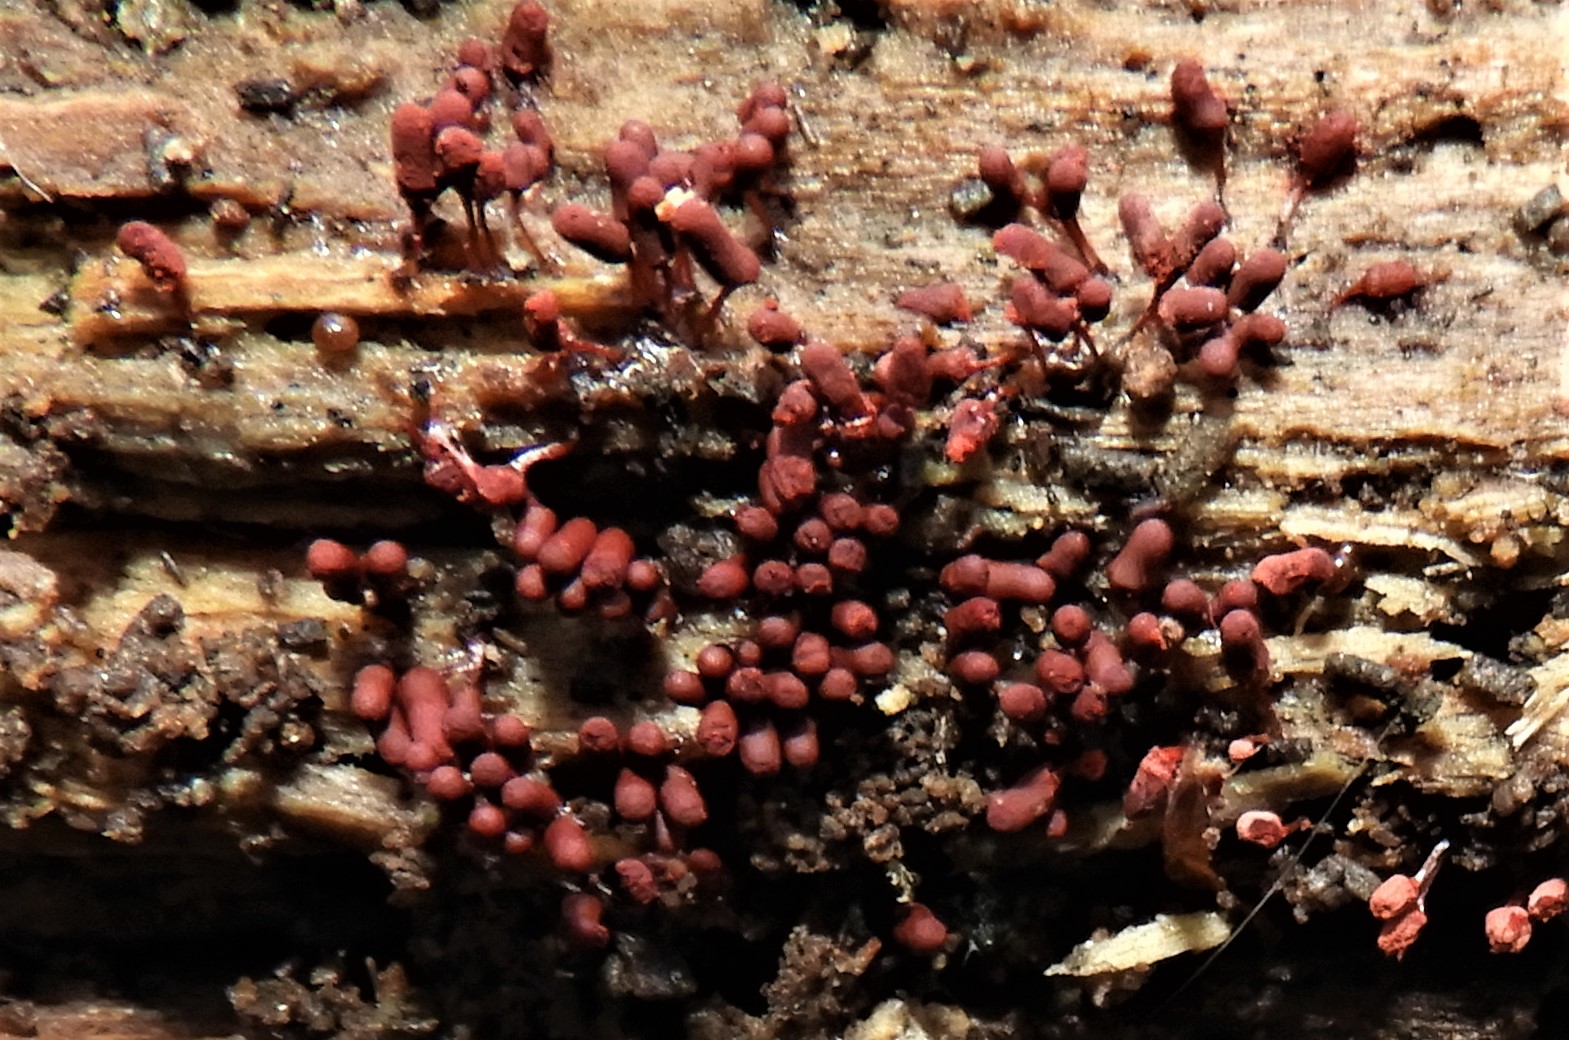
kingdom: Protozoa
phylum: Amoebozoa
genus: Arcyria
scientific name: Arcyria
